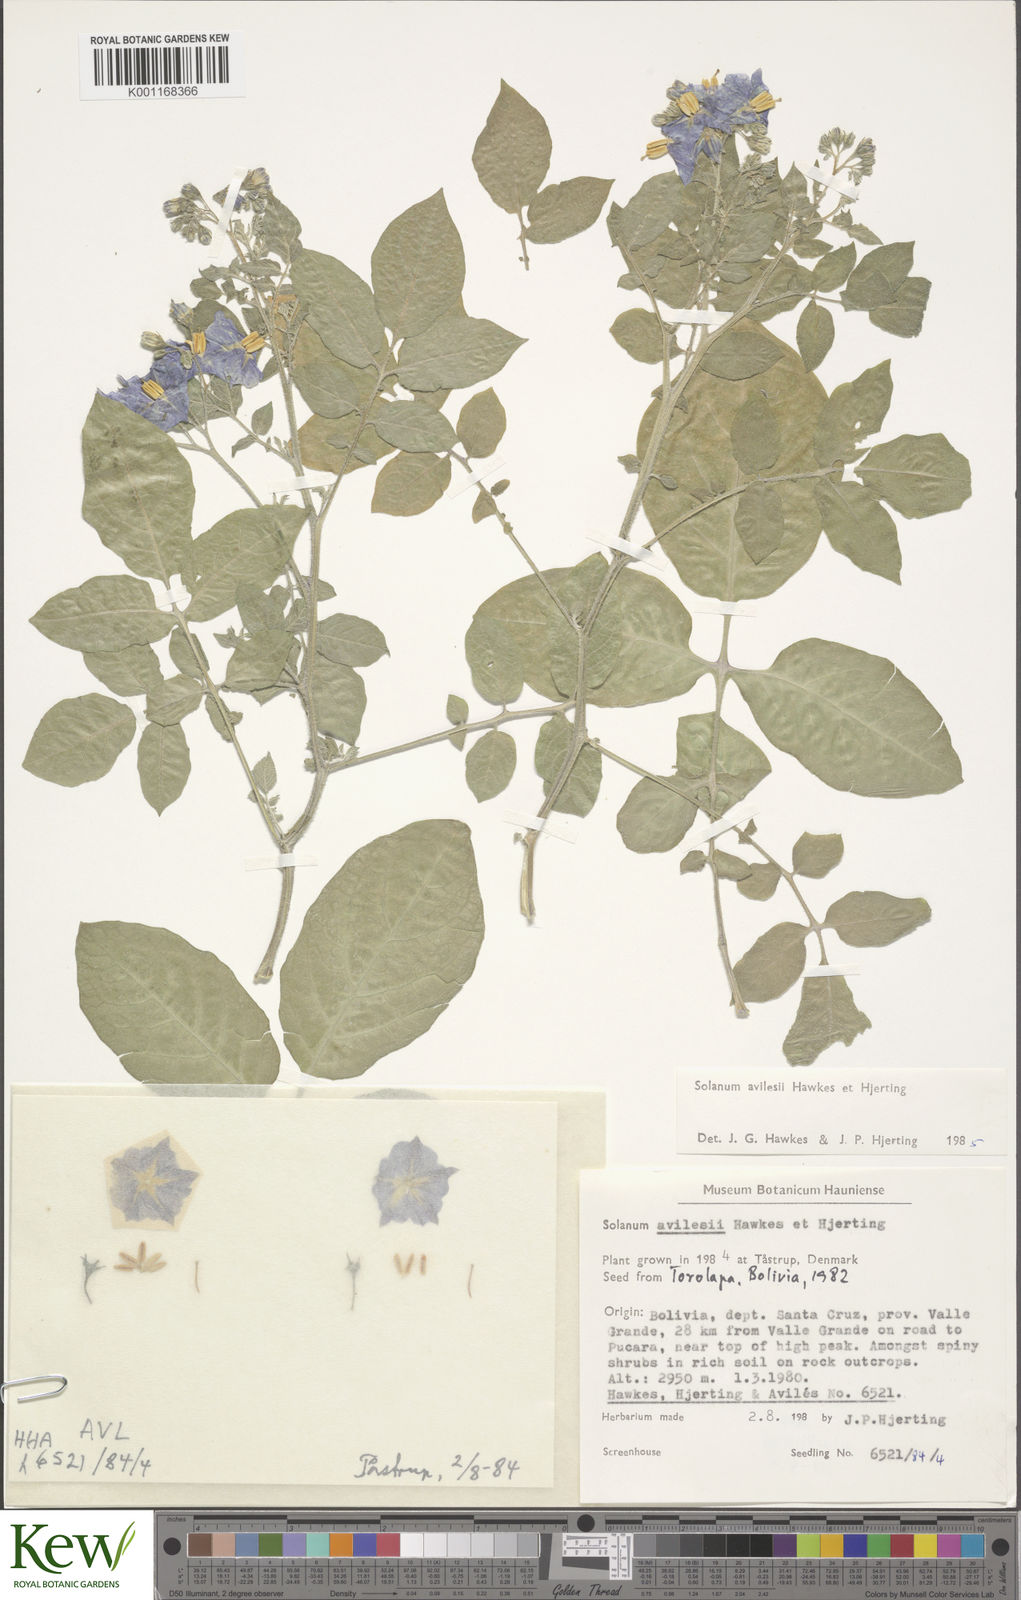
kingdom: Plantae
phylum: Tracheophyta
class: Magnoliopsida
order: Solanales
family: Solanaceae
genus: Solanum
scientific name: Solanum brevicaule
